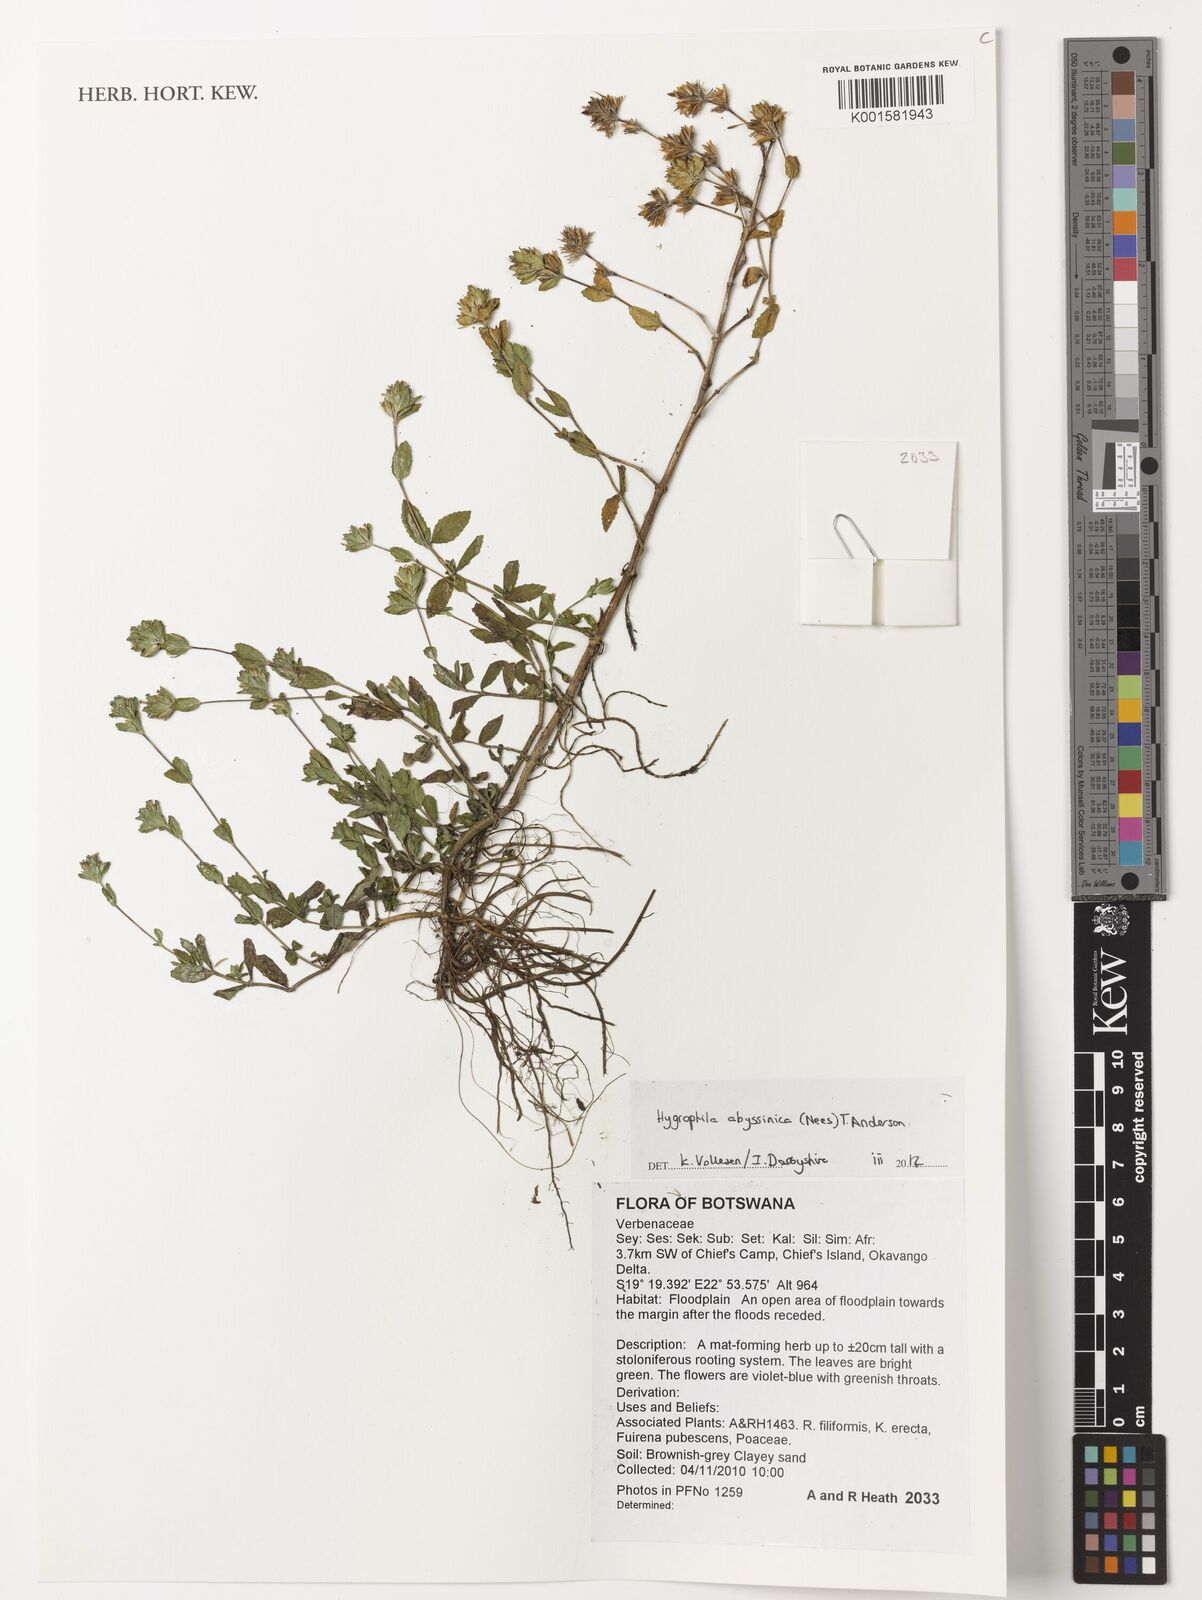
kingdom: Plantae
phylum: Tracheophyta
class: Magnoliopsida
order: Lamiales
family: Acanthaceae
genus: Hygrophila
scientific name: Hygrophila abyssinica
